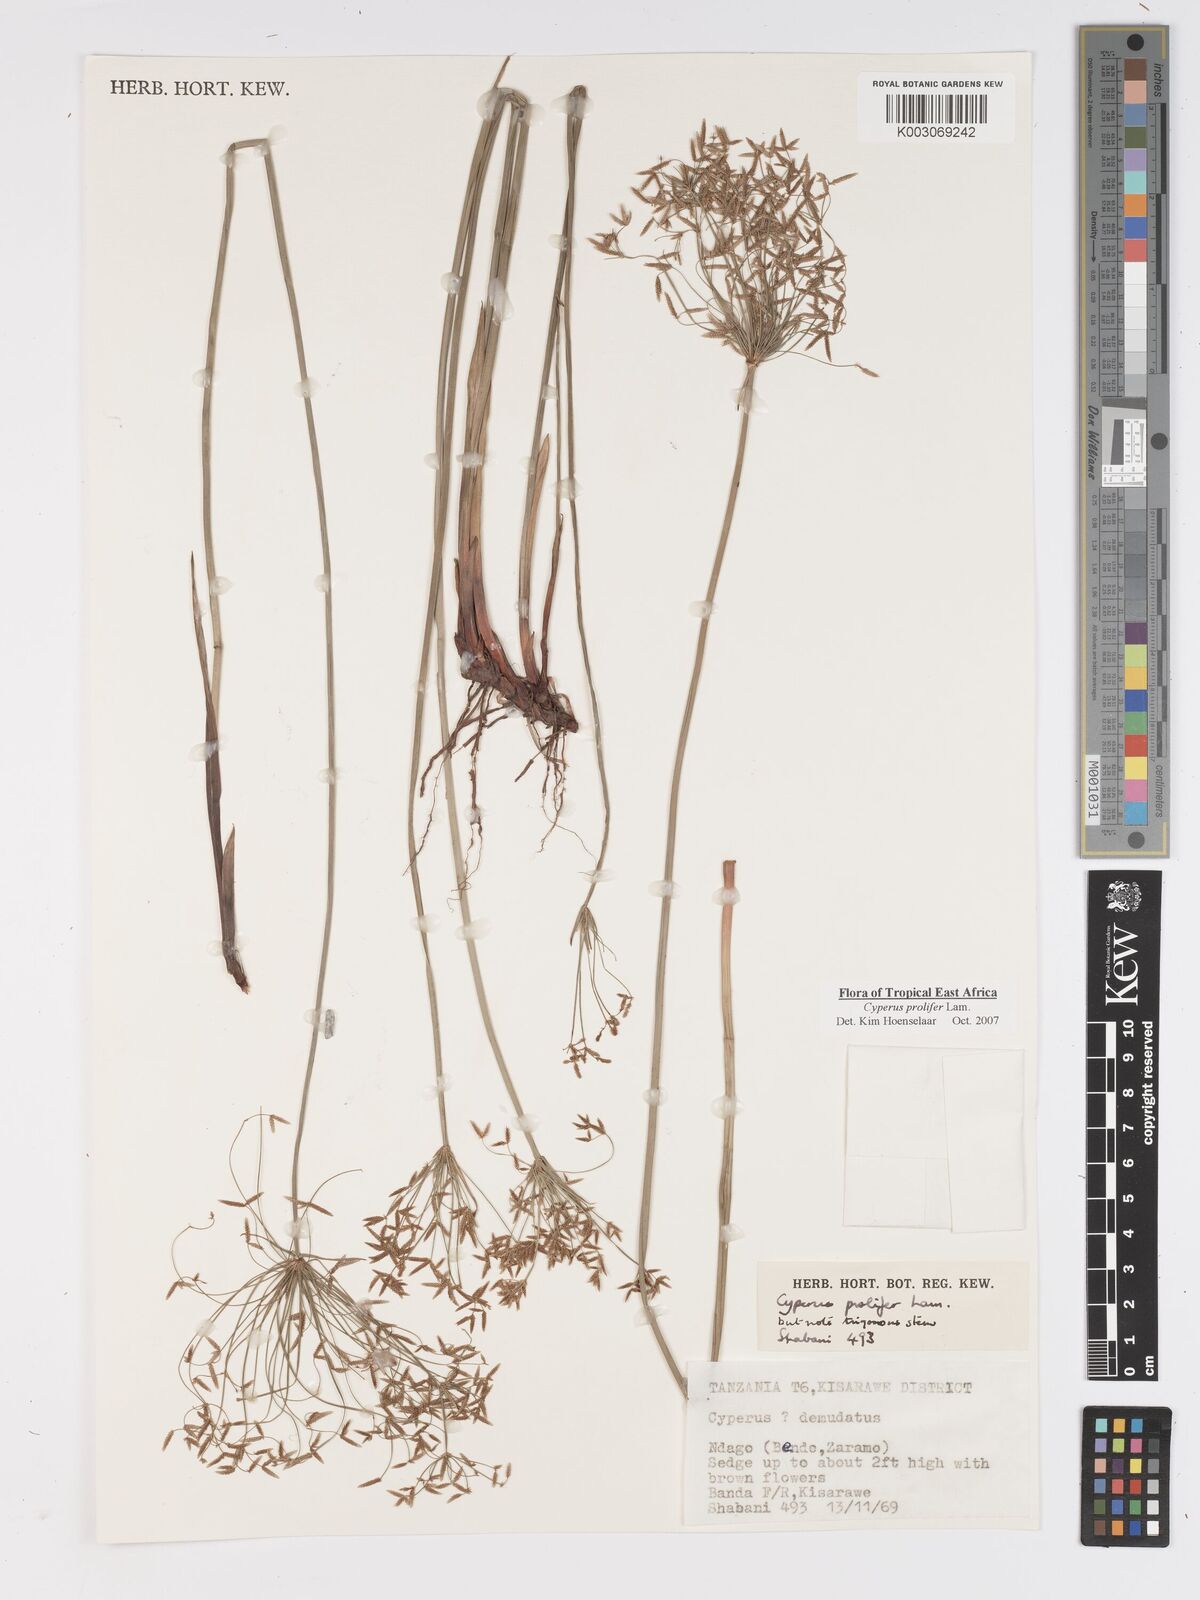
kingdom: Plantae
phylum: Tracheophyta
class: Liliopsida
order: Poales
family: Cyperaceae
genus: Cyperus
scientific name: Cyperus prolifer
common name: Miniature flatsedge
